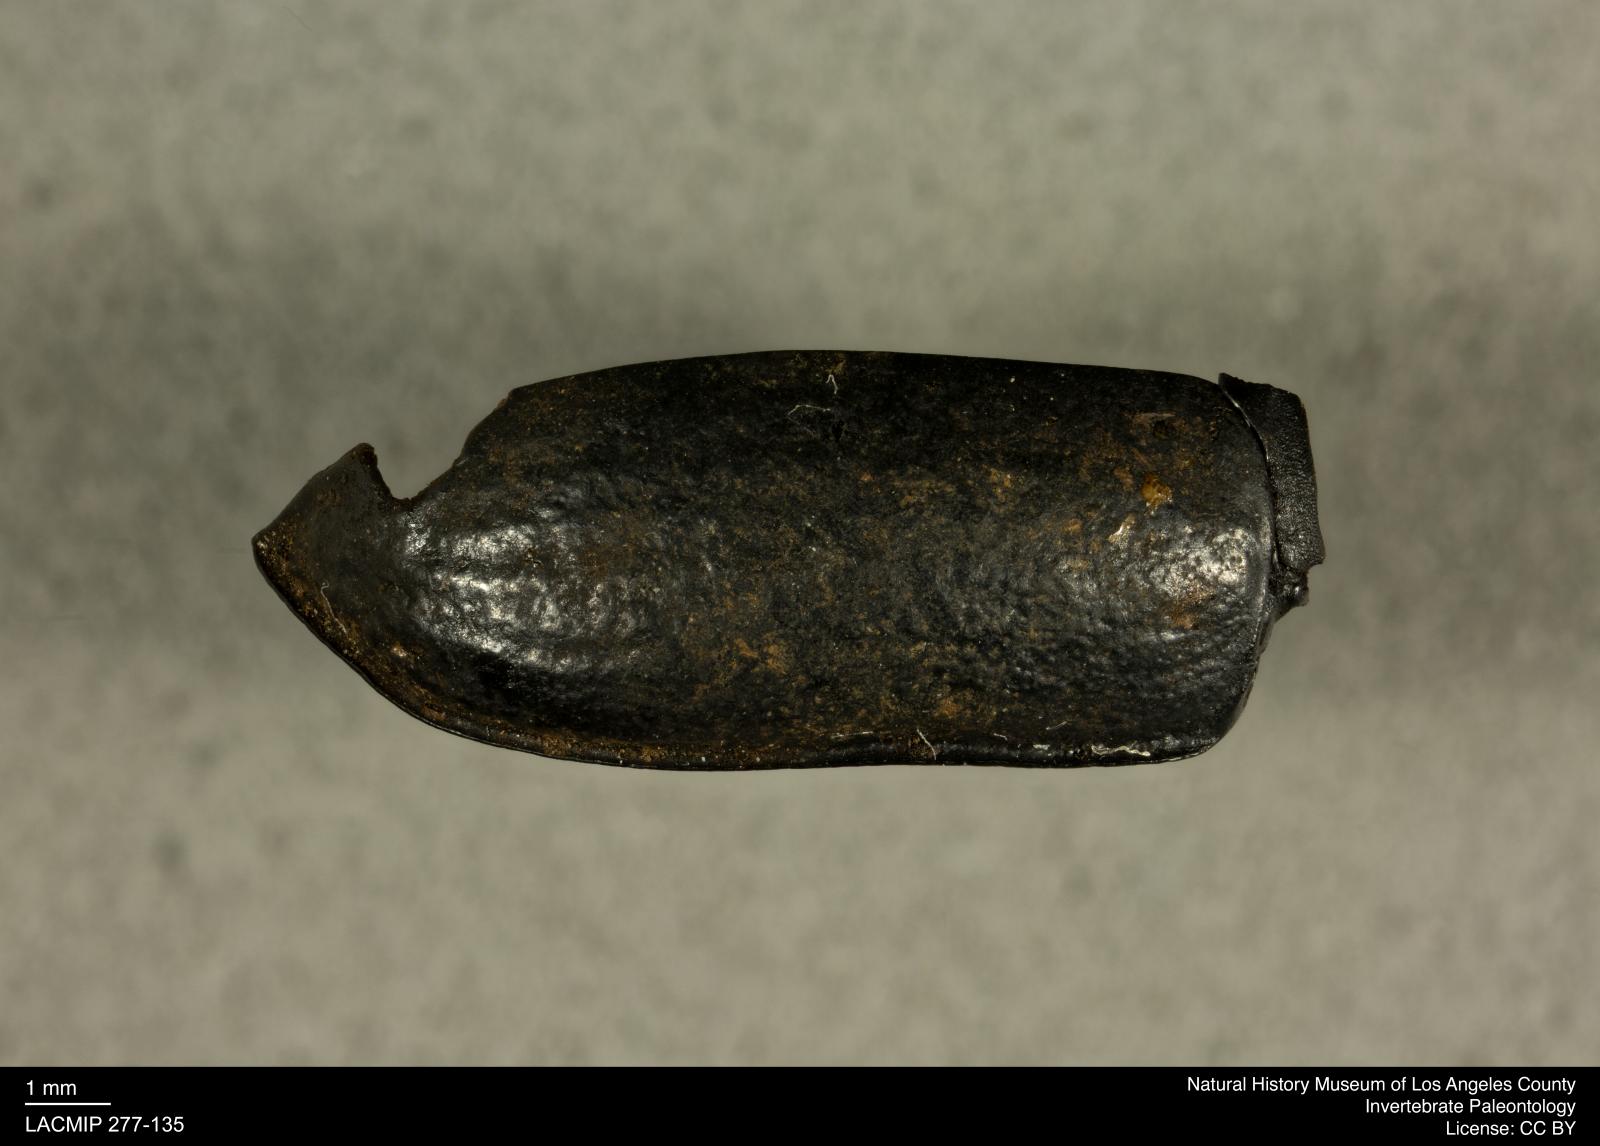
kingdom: Animalia
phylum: Arthropoda
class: Insecta
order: Coleoptera
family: Tenebrionidae
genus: Coniontis
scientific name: Coniontis abdominalis
